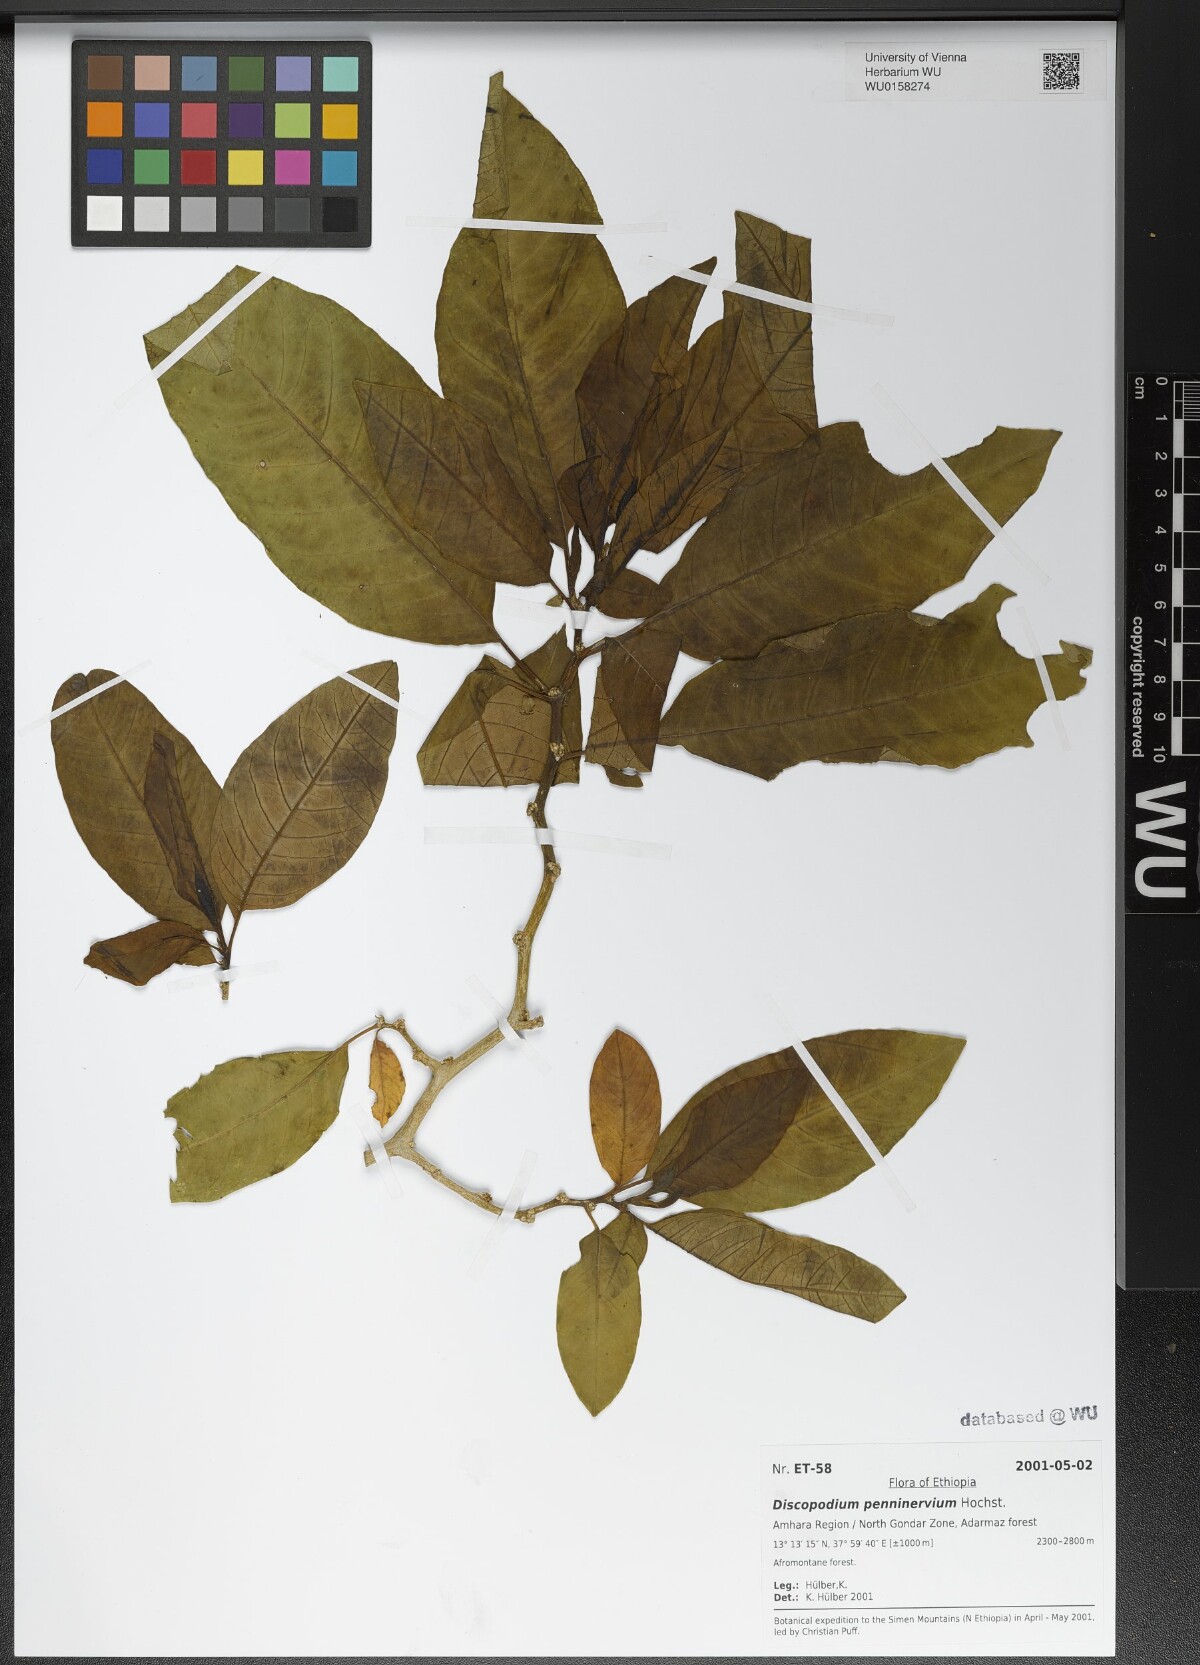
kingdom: Plantae
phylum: Tracheophyta
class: Magnoliopsida
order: Solanales
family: Solanaceae
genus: Discopodium
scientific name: Discopodium penninervium
